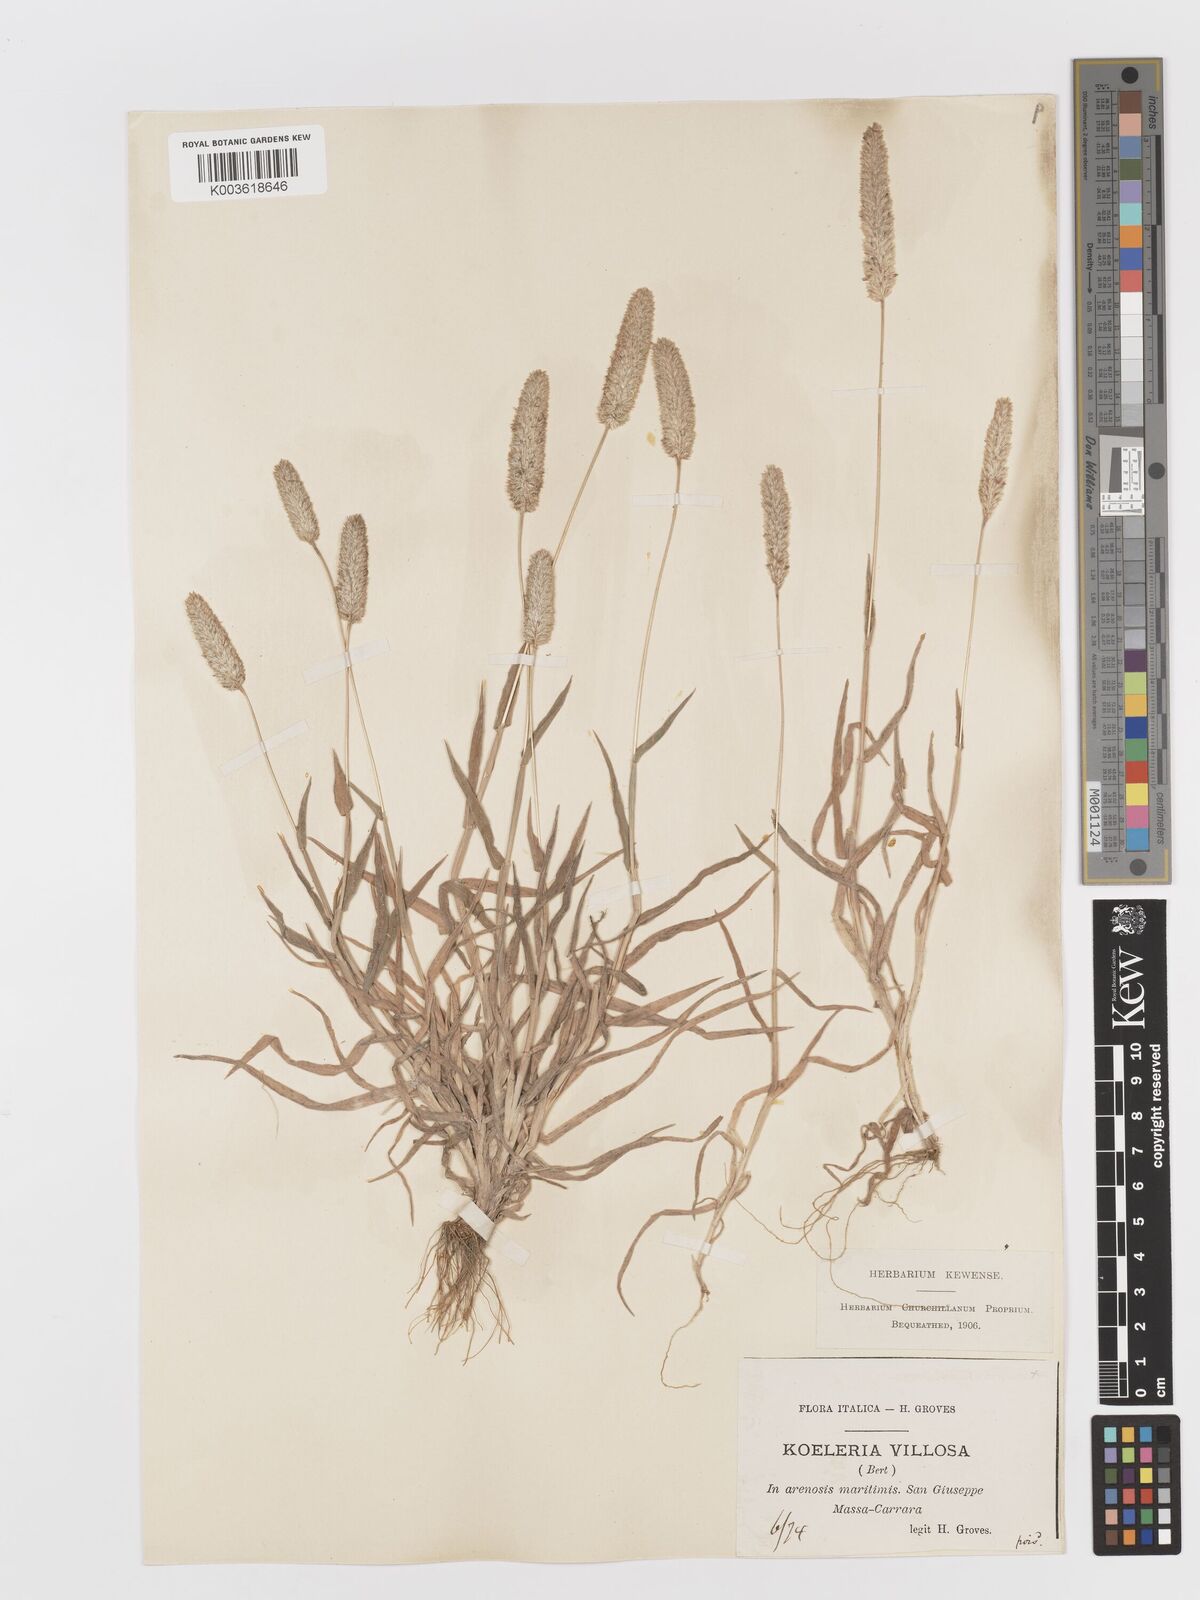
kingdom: Plantae
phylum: Tracheophyta
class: Liliopsida
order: Poales
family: Poaceae
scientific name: Poaceae
